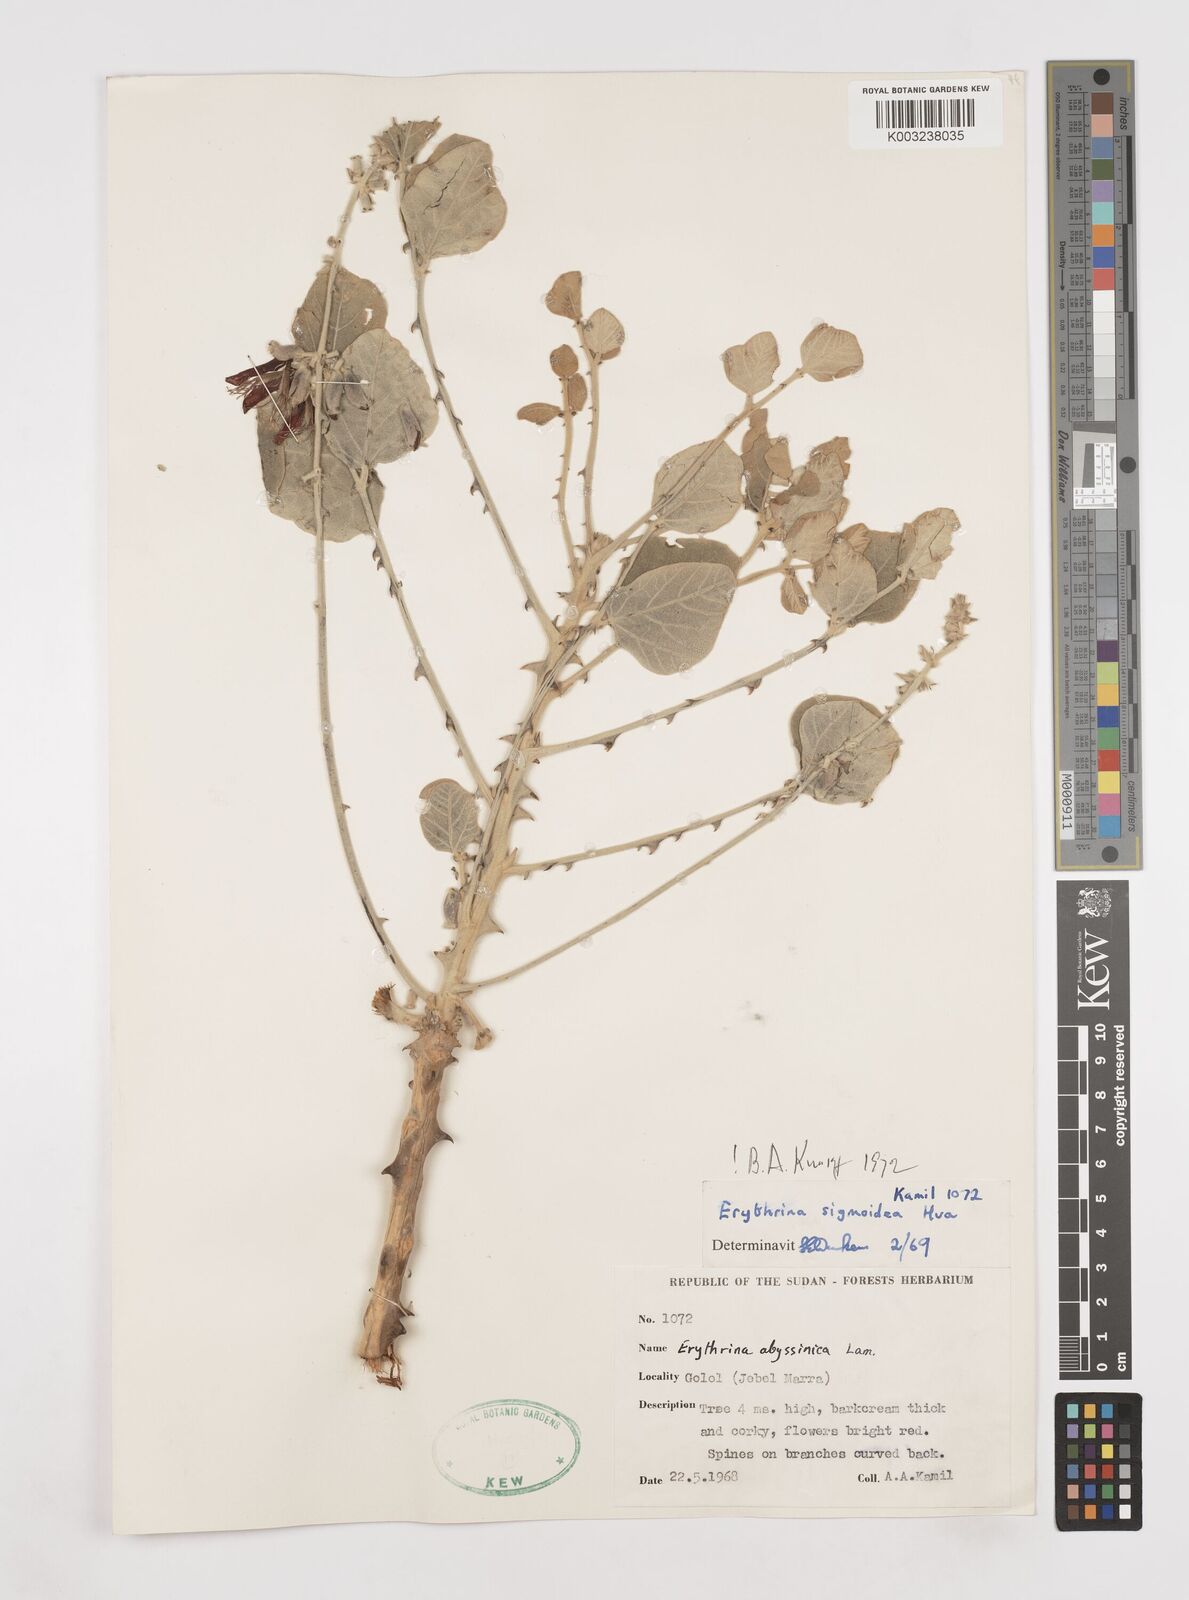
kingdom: Plantae
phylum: Tracheophyta
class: Magnoliopsida
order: Fabales
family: Fabaceae
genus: Erythrina
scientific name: Erythrina sigmoidea
